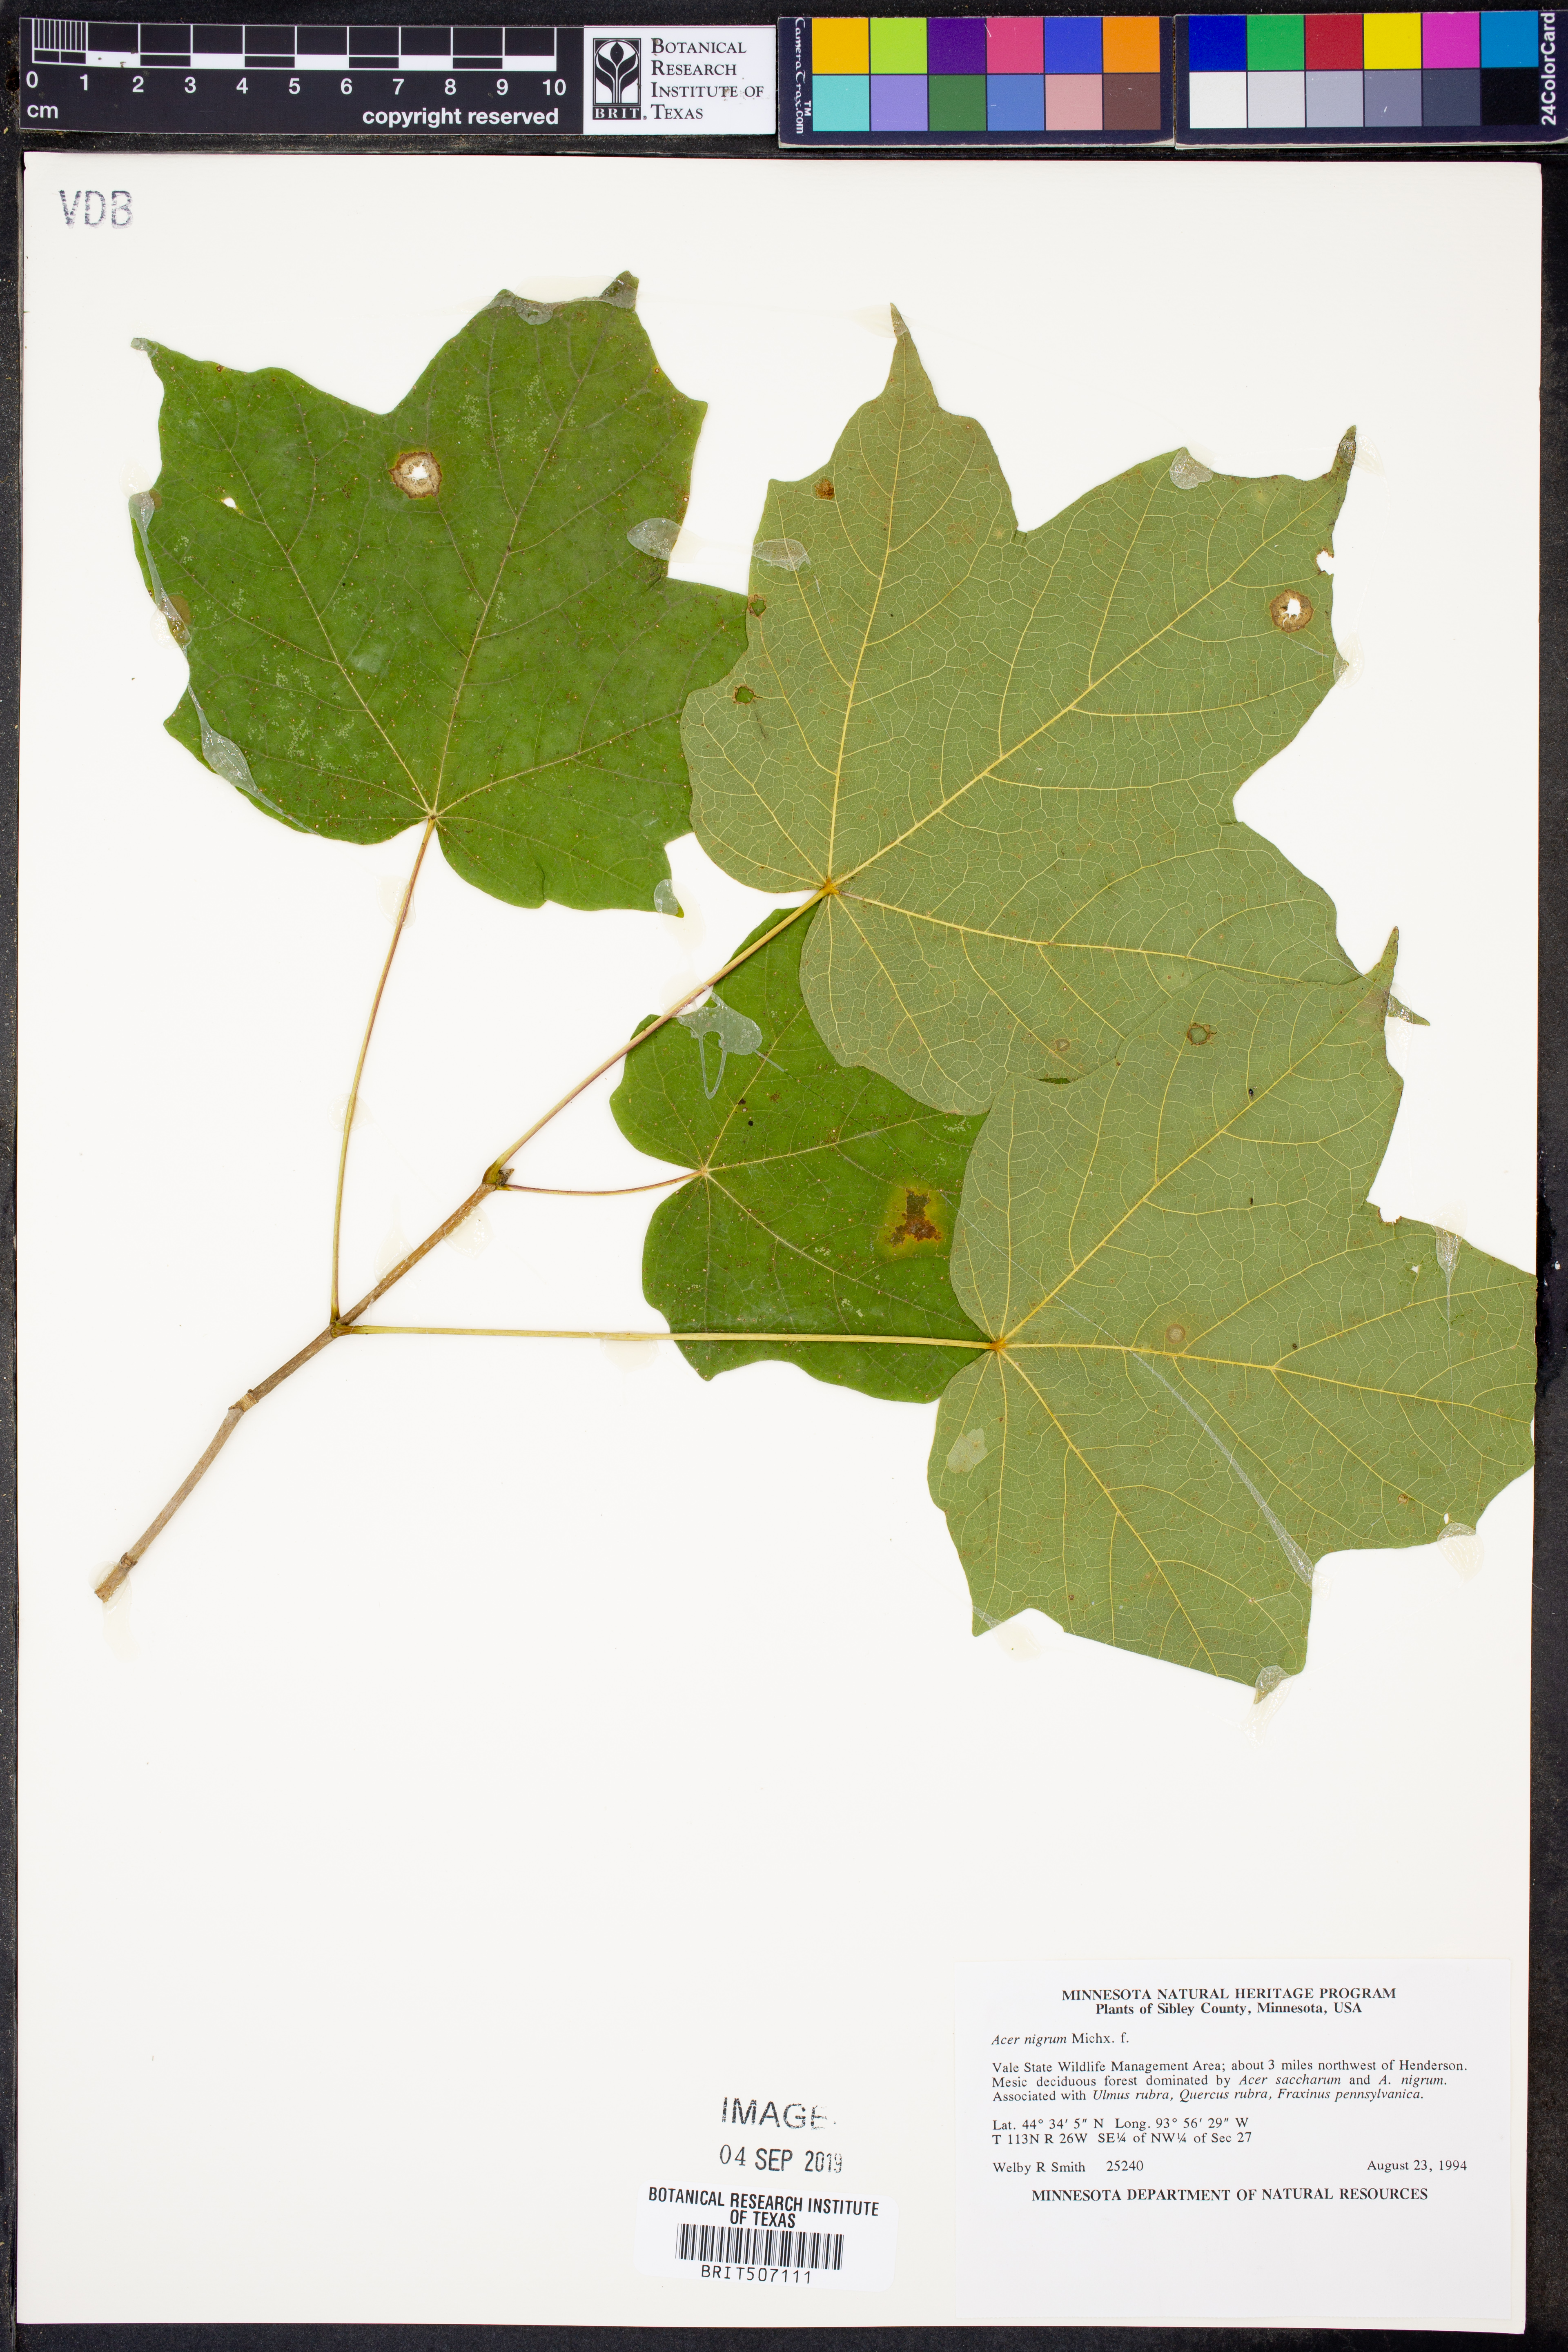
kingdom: Plantae
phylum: Tracheophyta
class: Magnoliopsida
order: Sapindales
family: Sapindaceae
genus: Acer
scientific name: Acer nigrum
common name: Black maple
